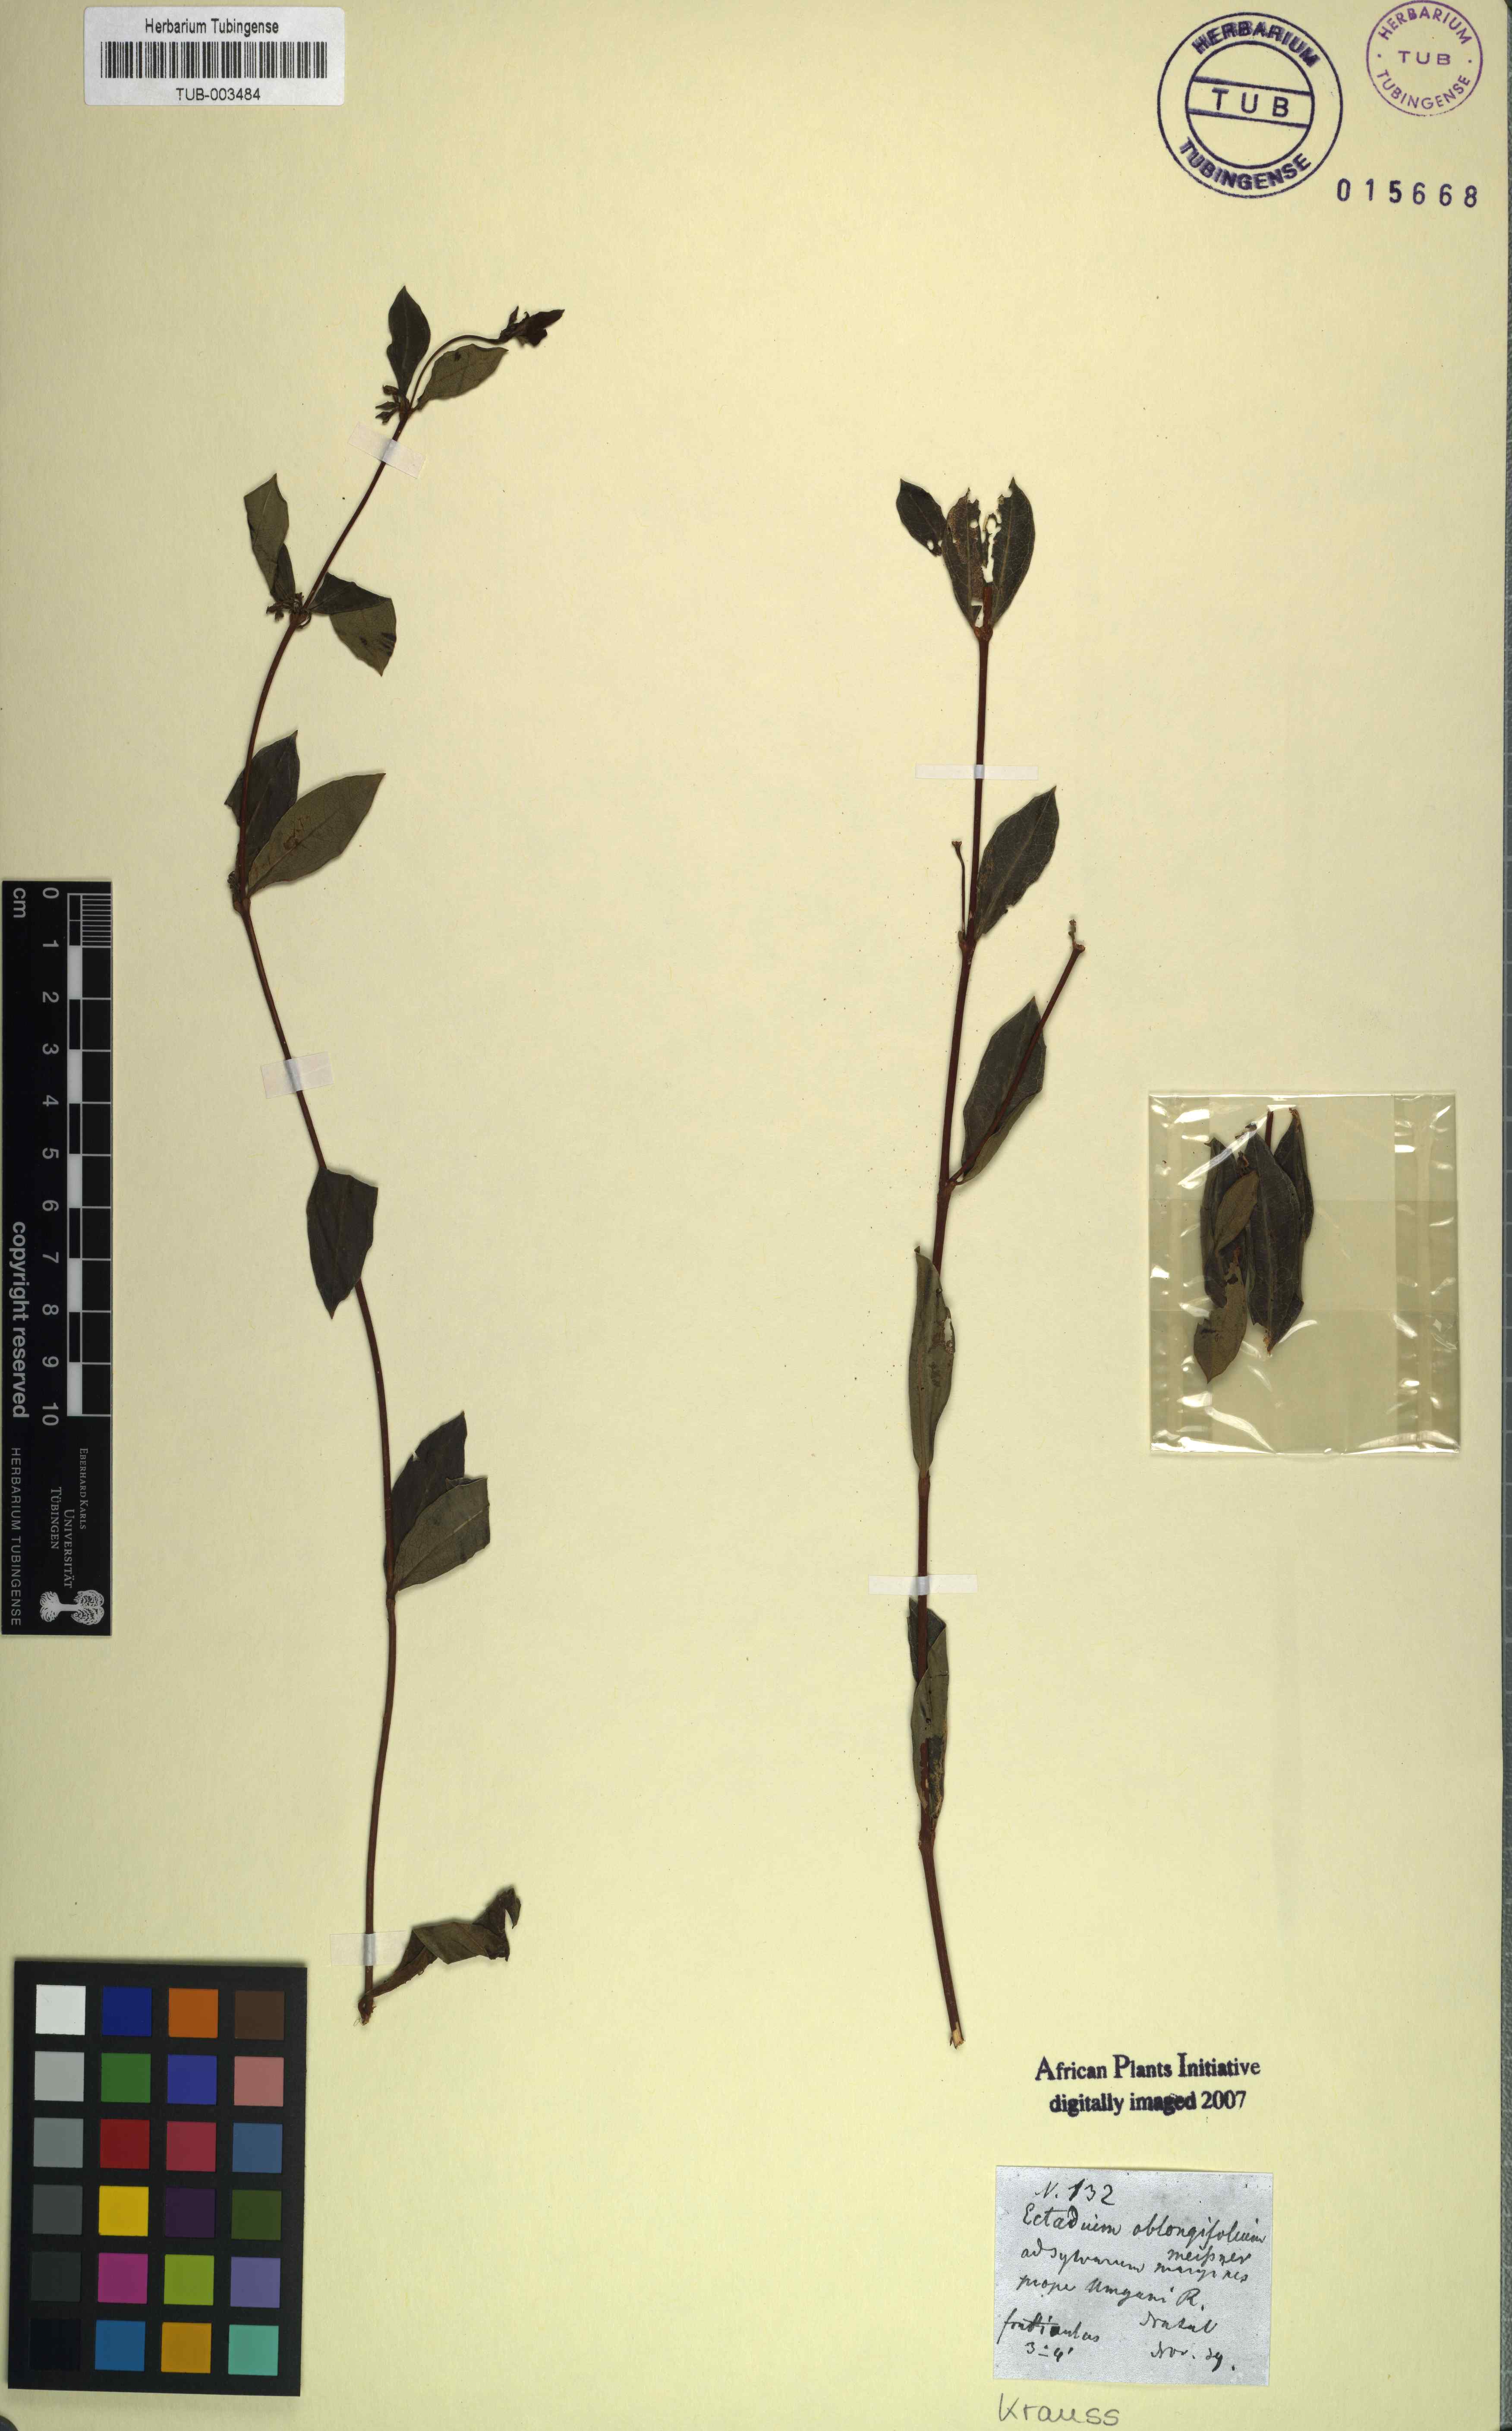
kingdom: Plantae
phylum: Tracheophyta
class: Magnoliopsida
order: Gentianales
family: Apocynaceae
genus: Cryptolepis
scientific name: Cryptolepis oblongifolia
